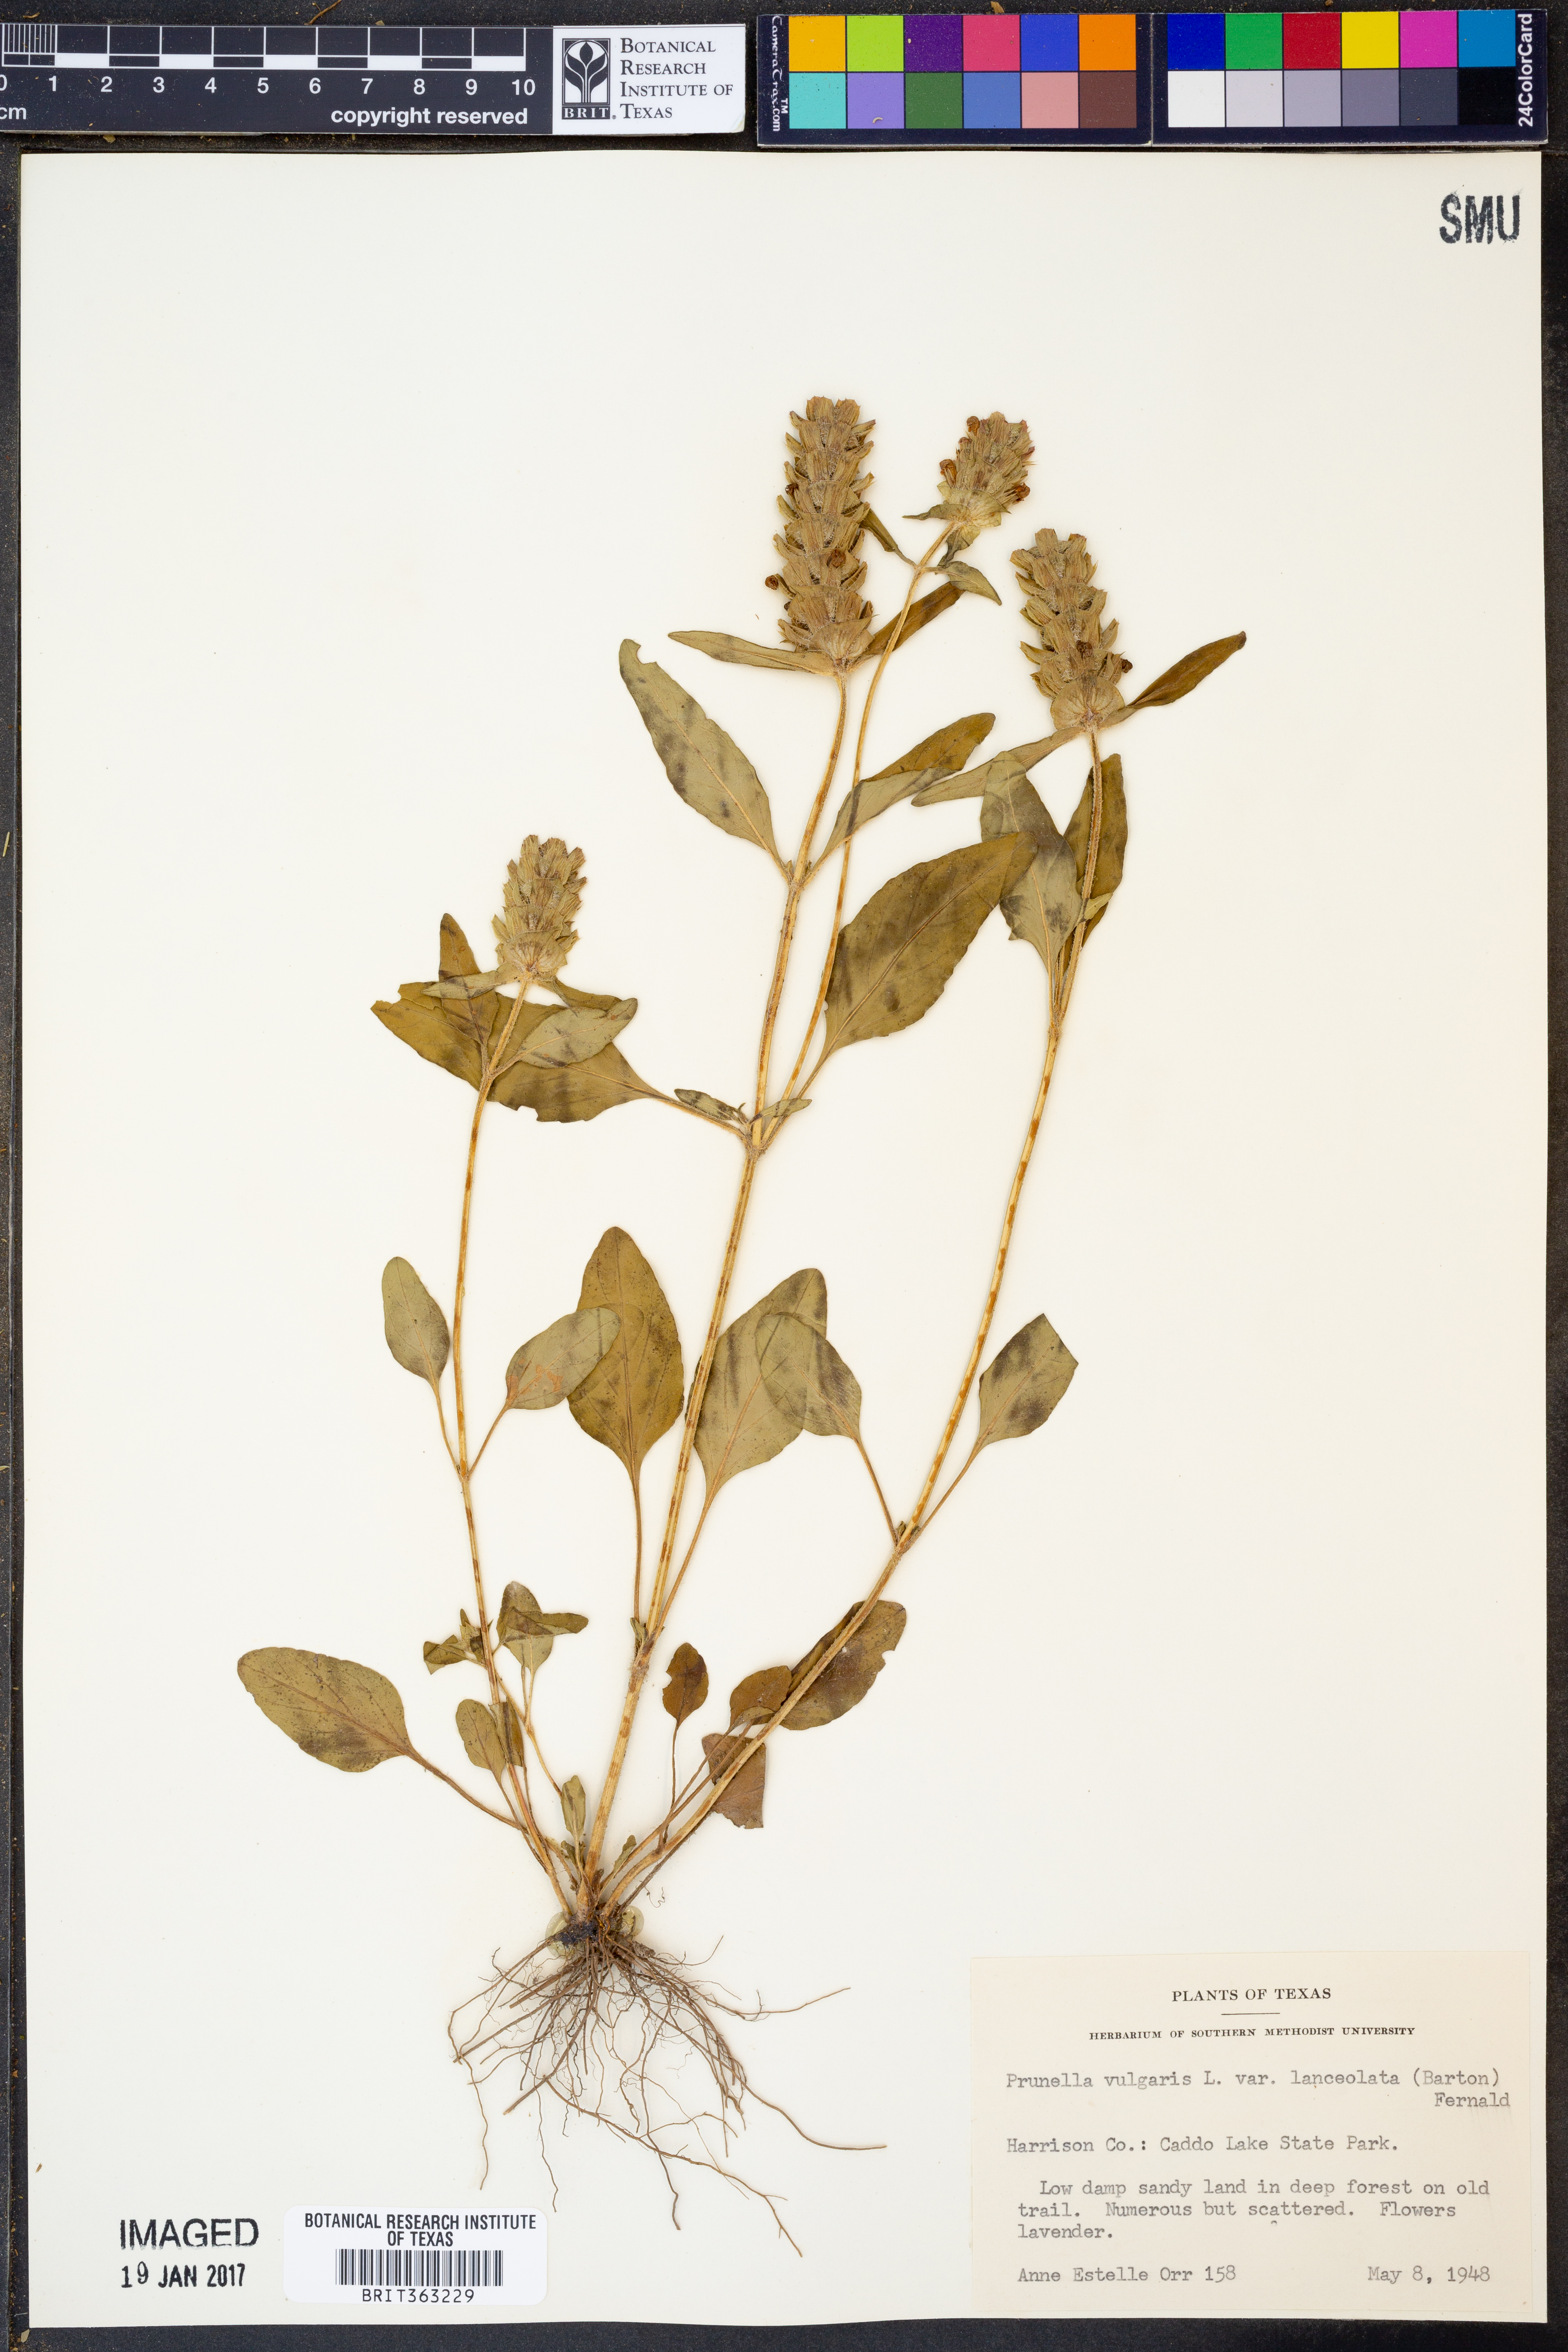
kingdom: Plantae
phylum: Tracheophyta
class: Magnoliopsida
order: Lamiales
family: Lamiaceae
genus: Prunella
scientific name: Prunella vulgaris
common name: Heal-all
